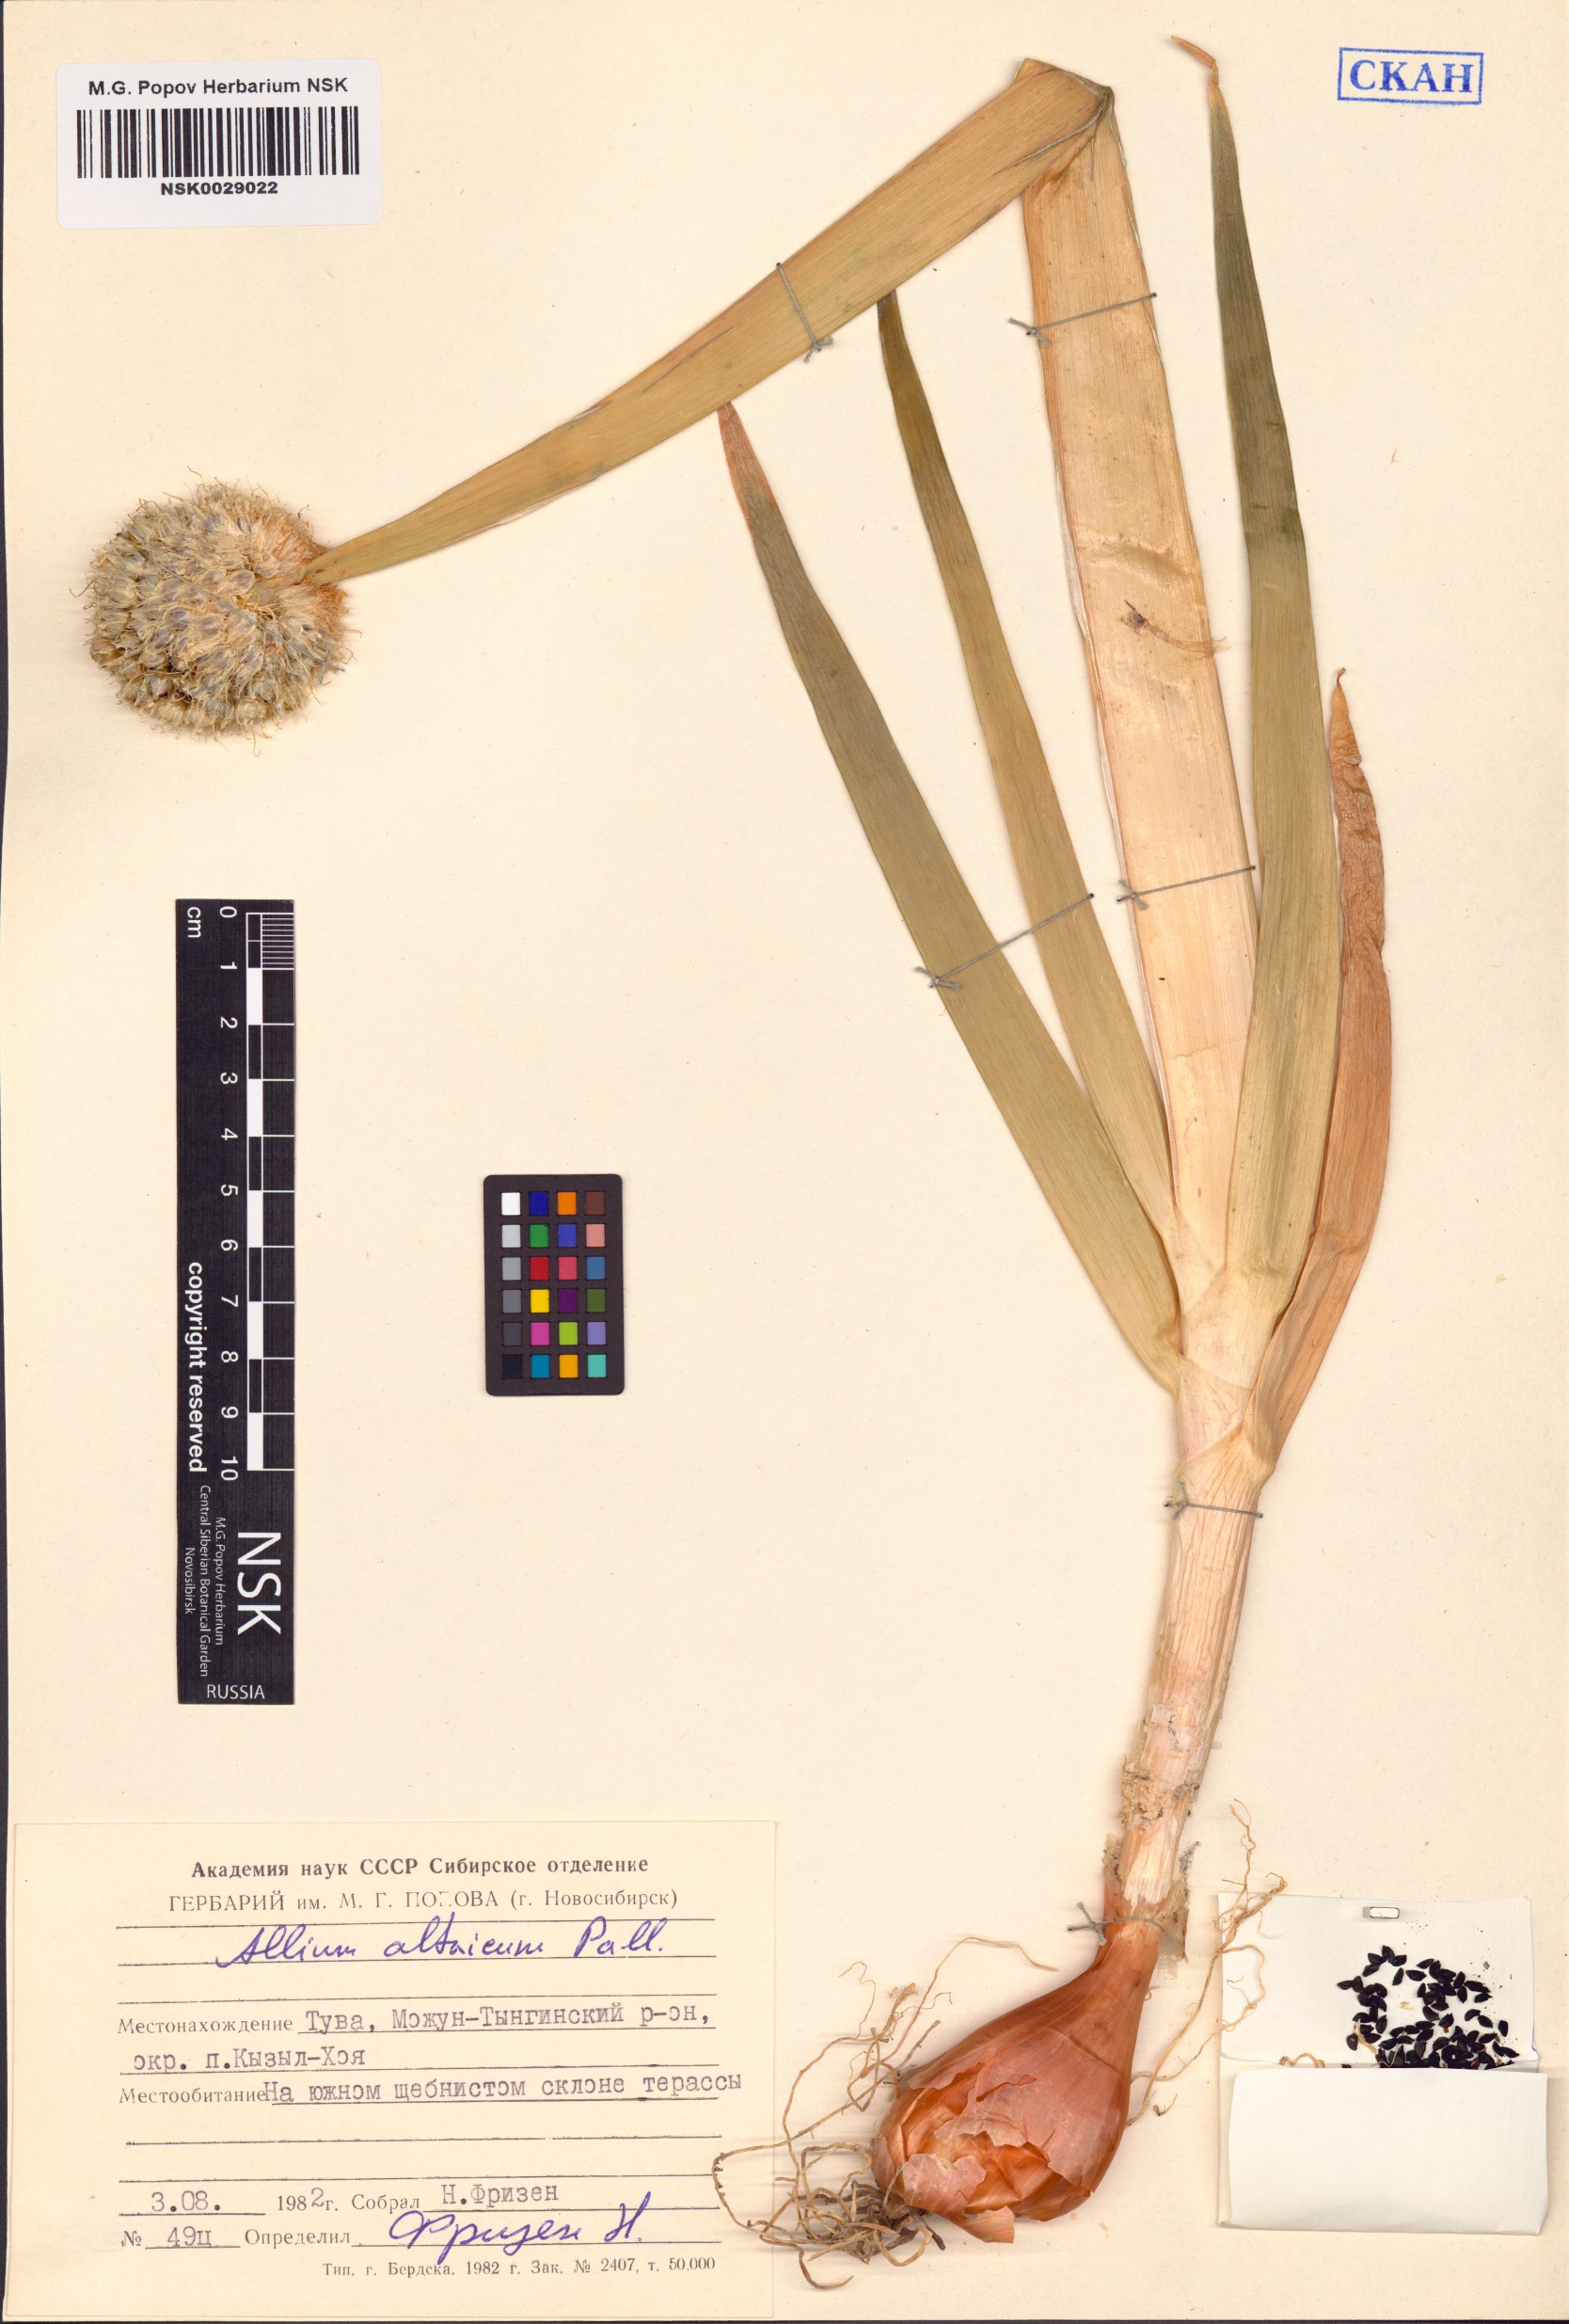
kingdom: Plantae
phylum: Tracheophyta
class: Liliopsida
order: Asparagales
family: Amaryllidaceae
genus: Allium
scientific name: Allium altaicum
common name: Altai onion
